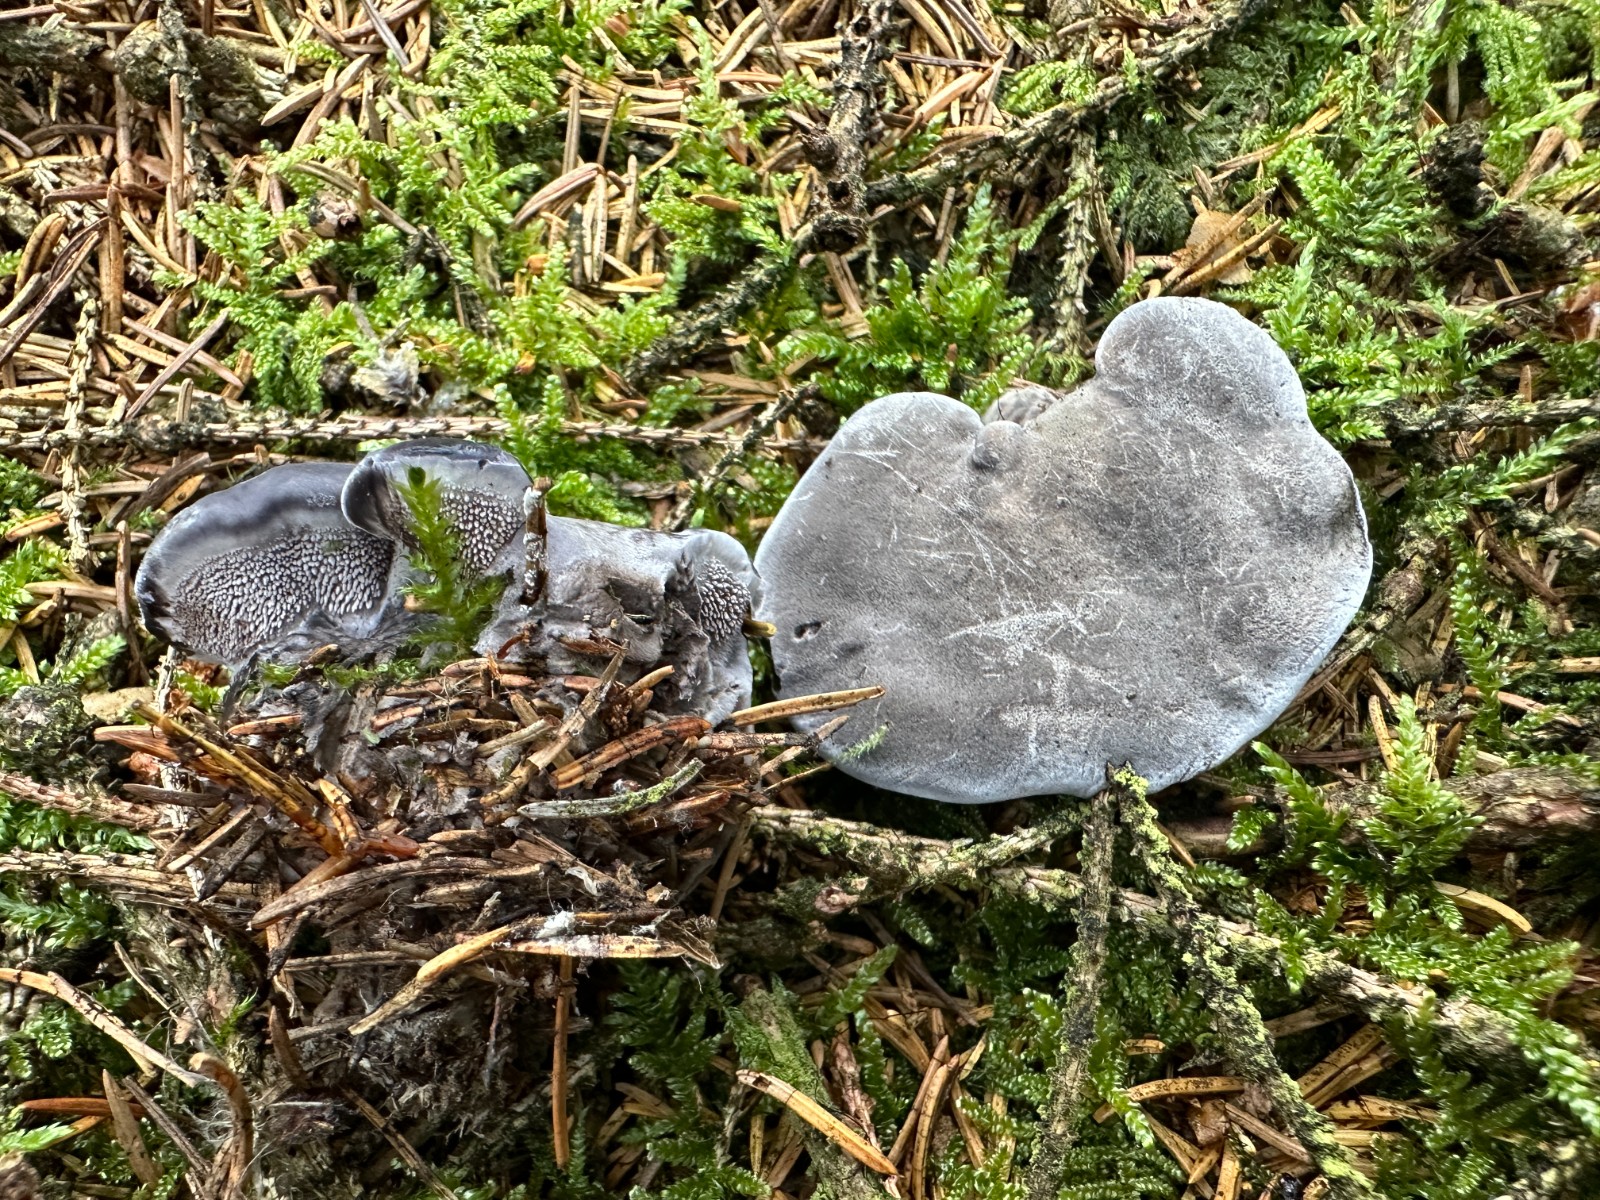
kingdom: Fungi
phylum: Basidiomycota
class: Agaricomycetes
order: Thelephorales
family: Thelephoraceae
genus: Phellodon
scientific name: Phellodon
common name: mørk duftpigsvamp
